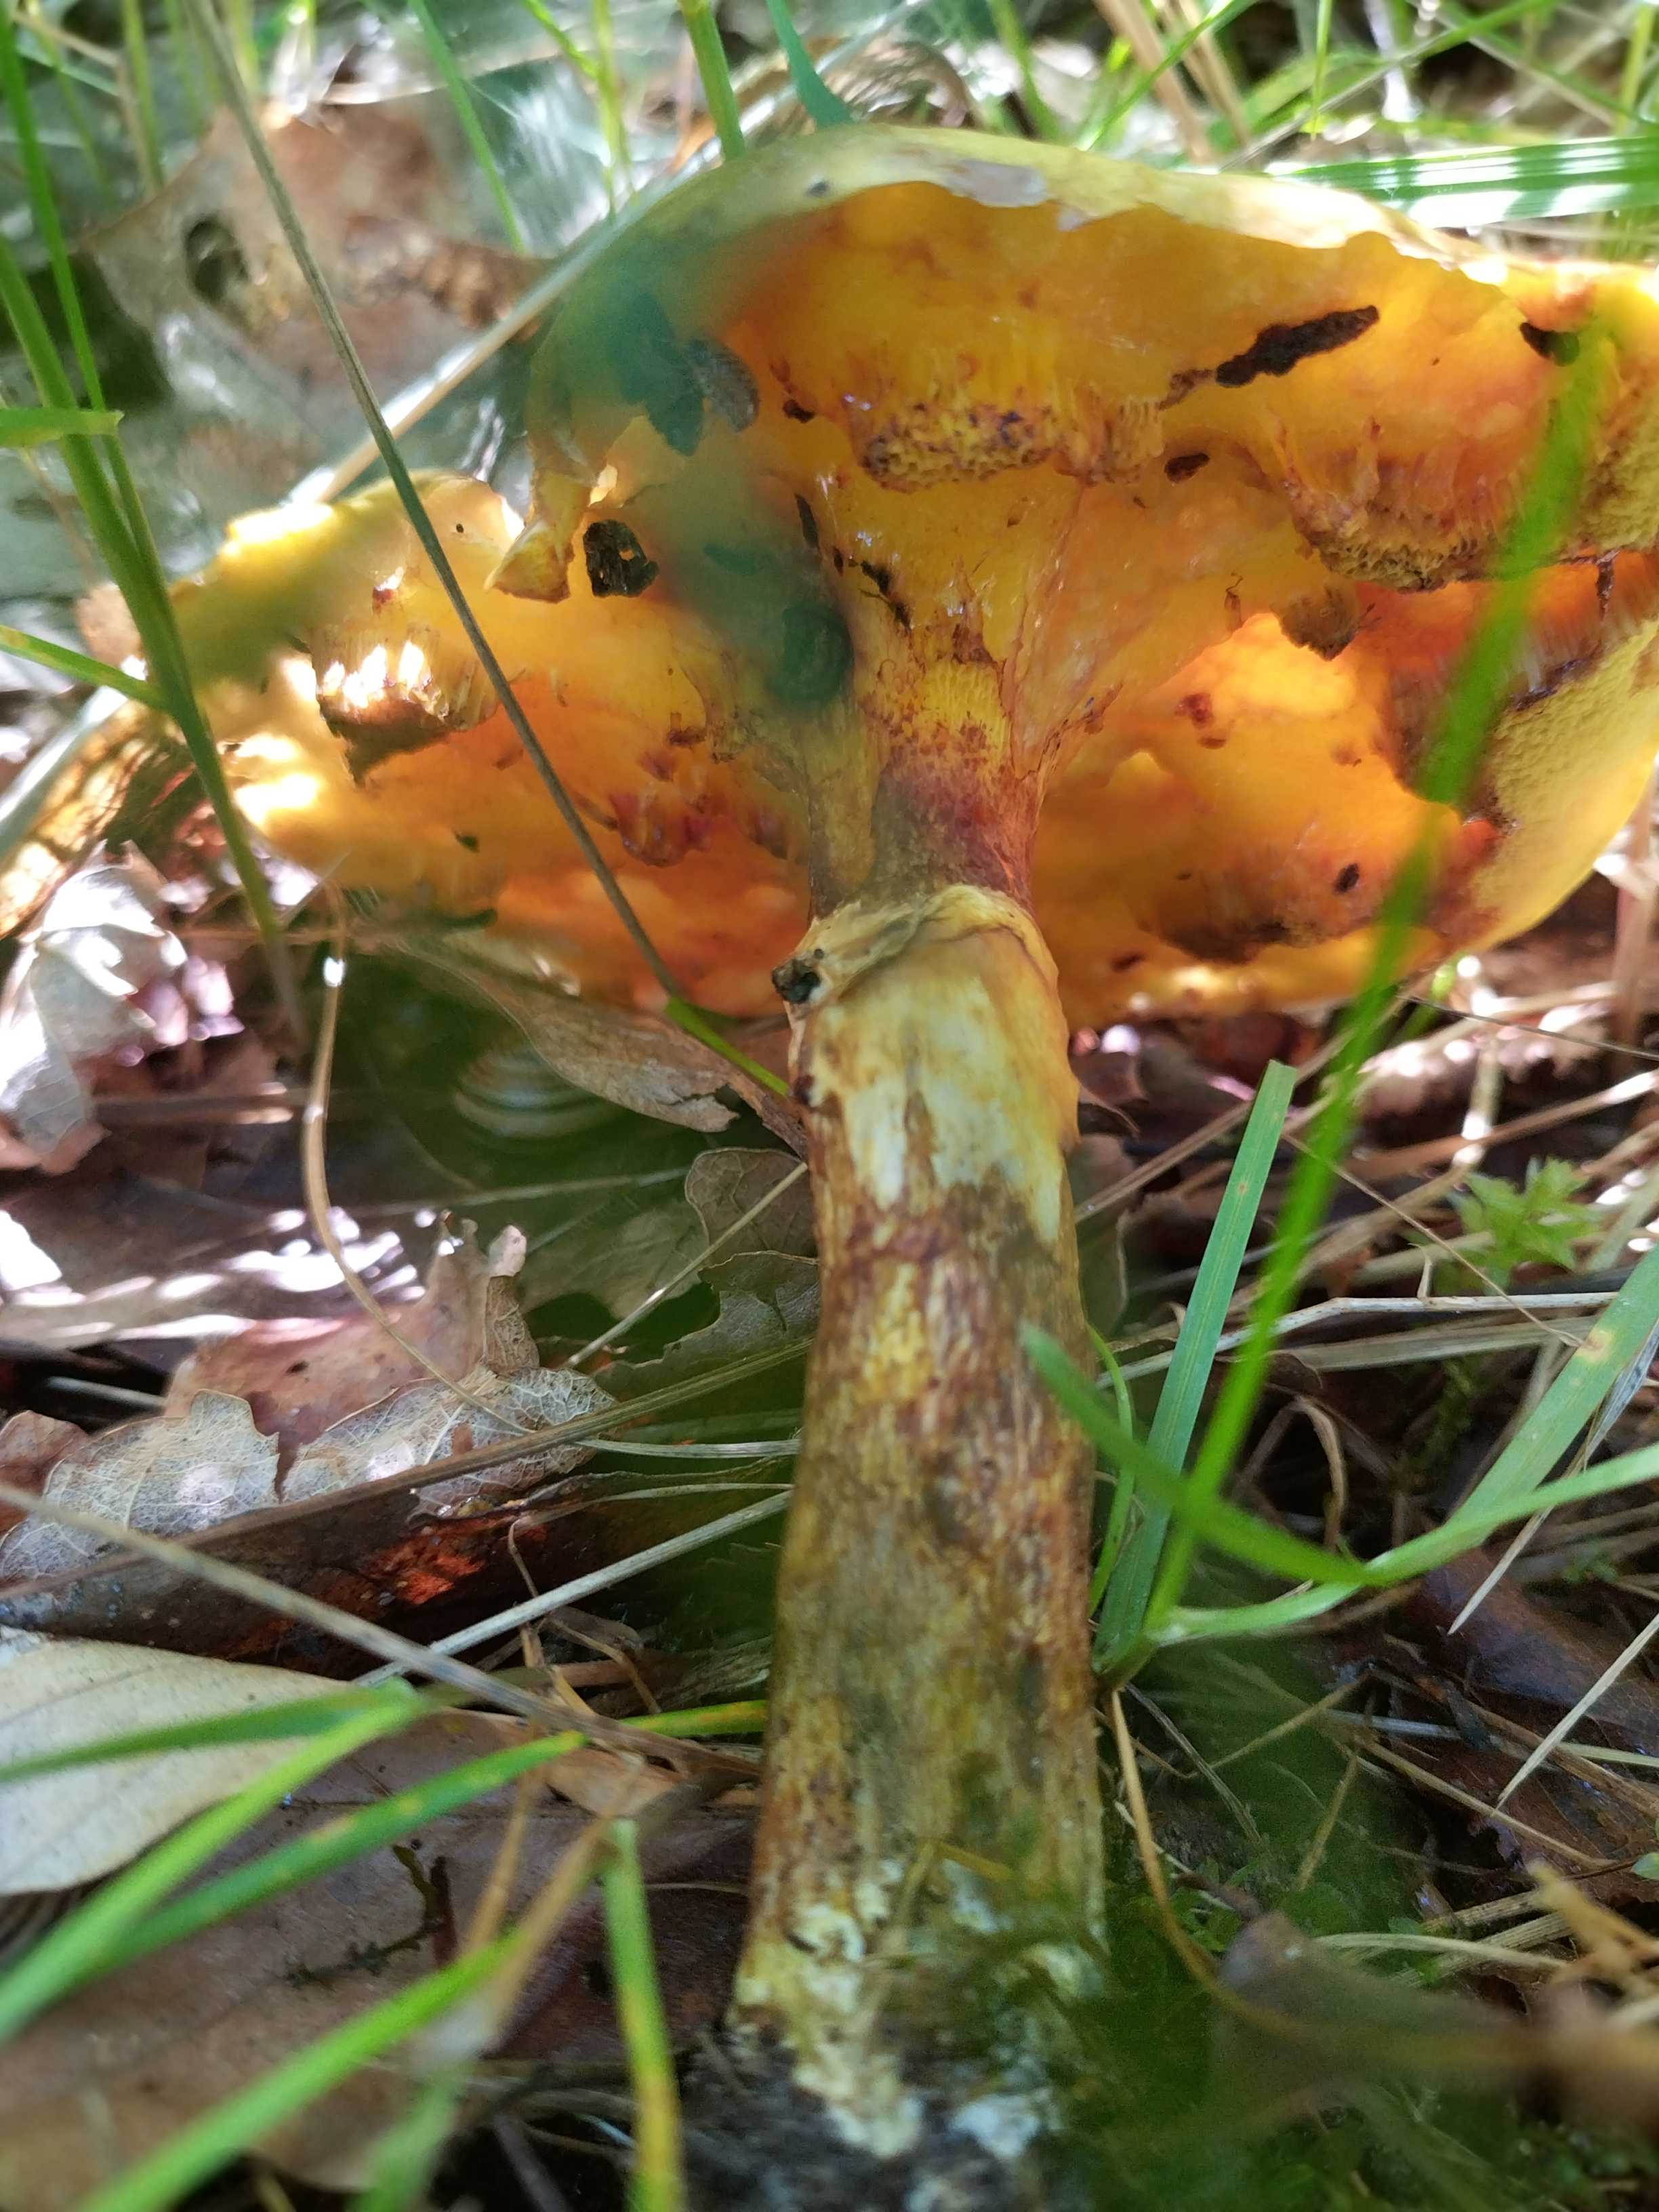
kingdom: Fungi
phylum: Basidiomycota
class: Agaricomycetes
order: Boletales
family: Suillaceae
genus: Suillus
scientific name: Suillus grevillei
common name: lærke-slimrørhat
